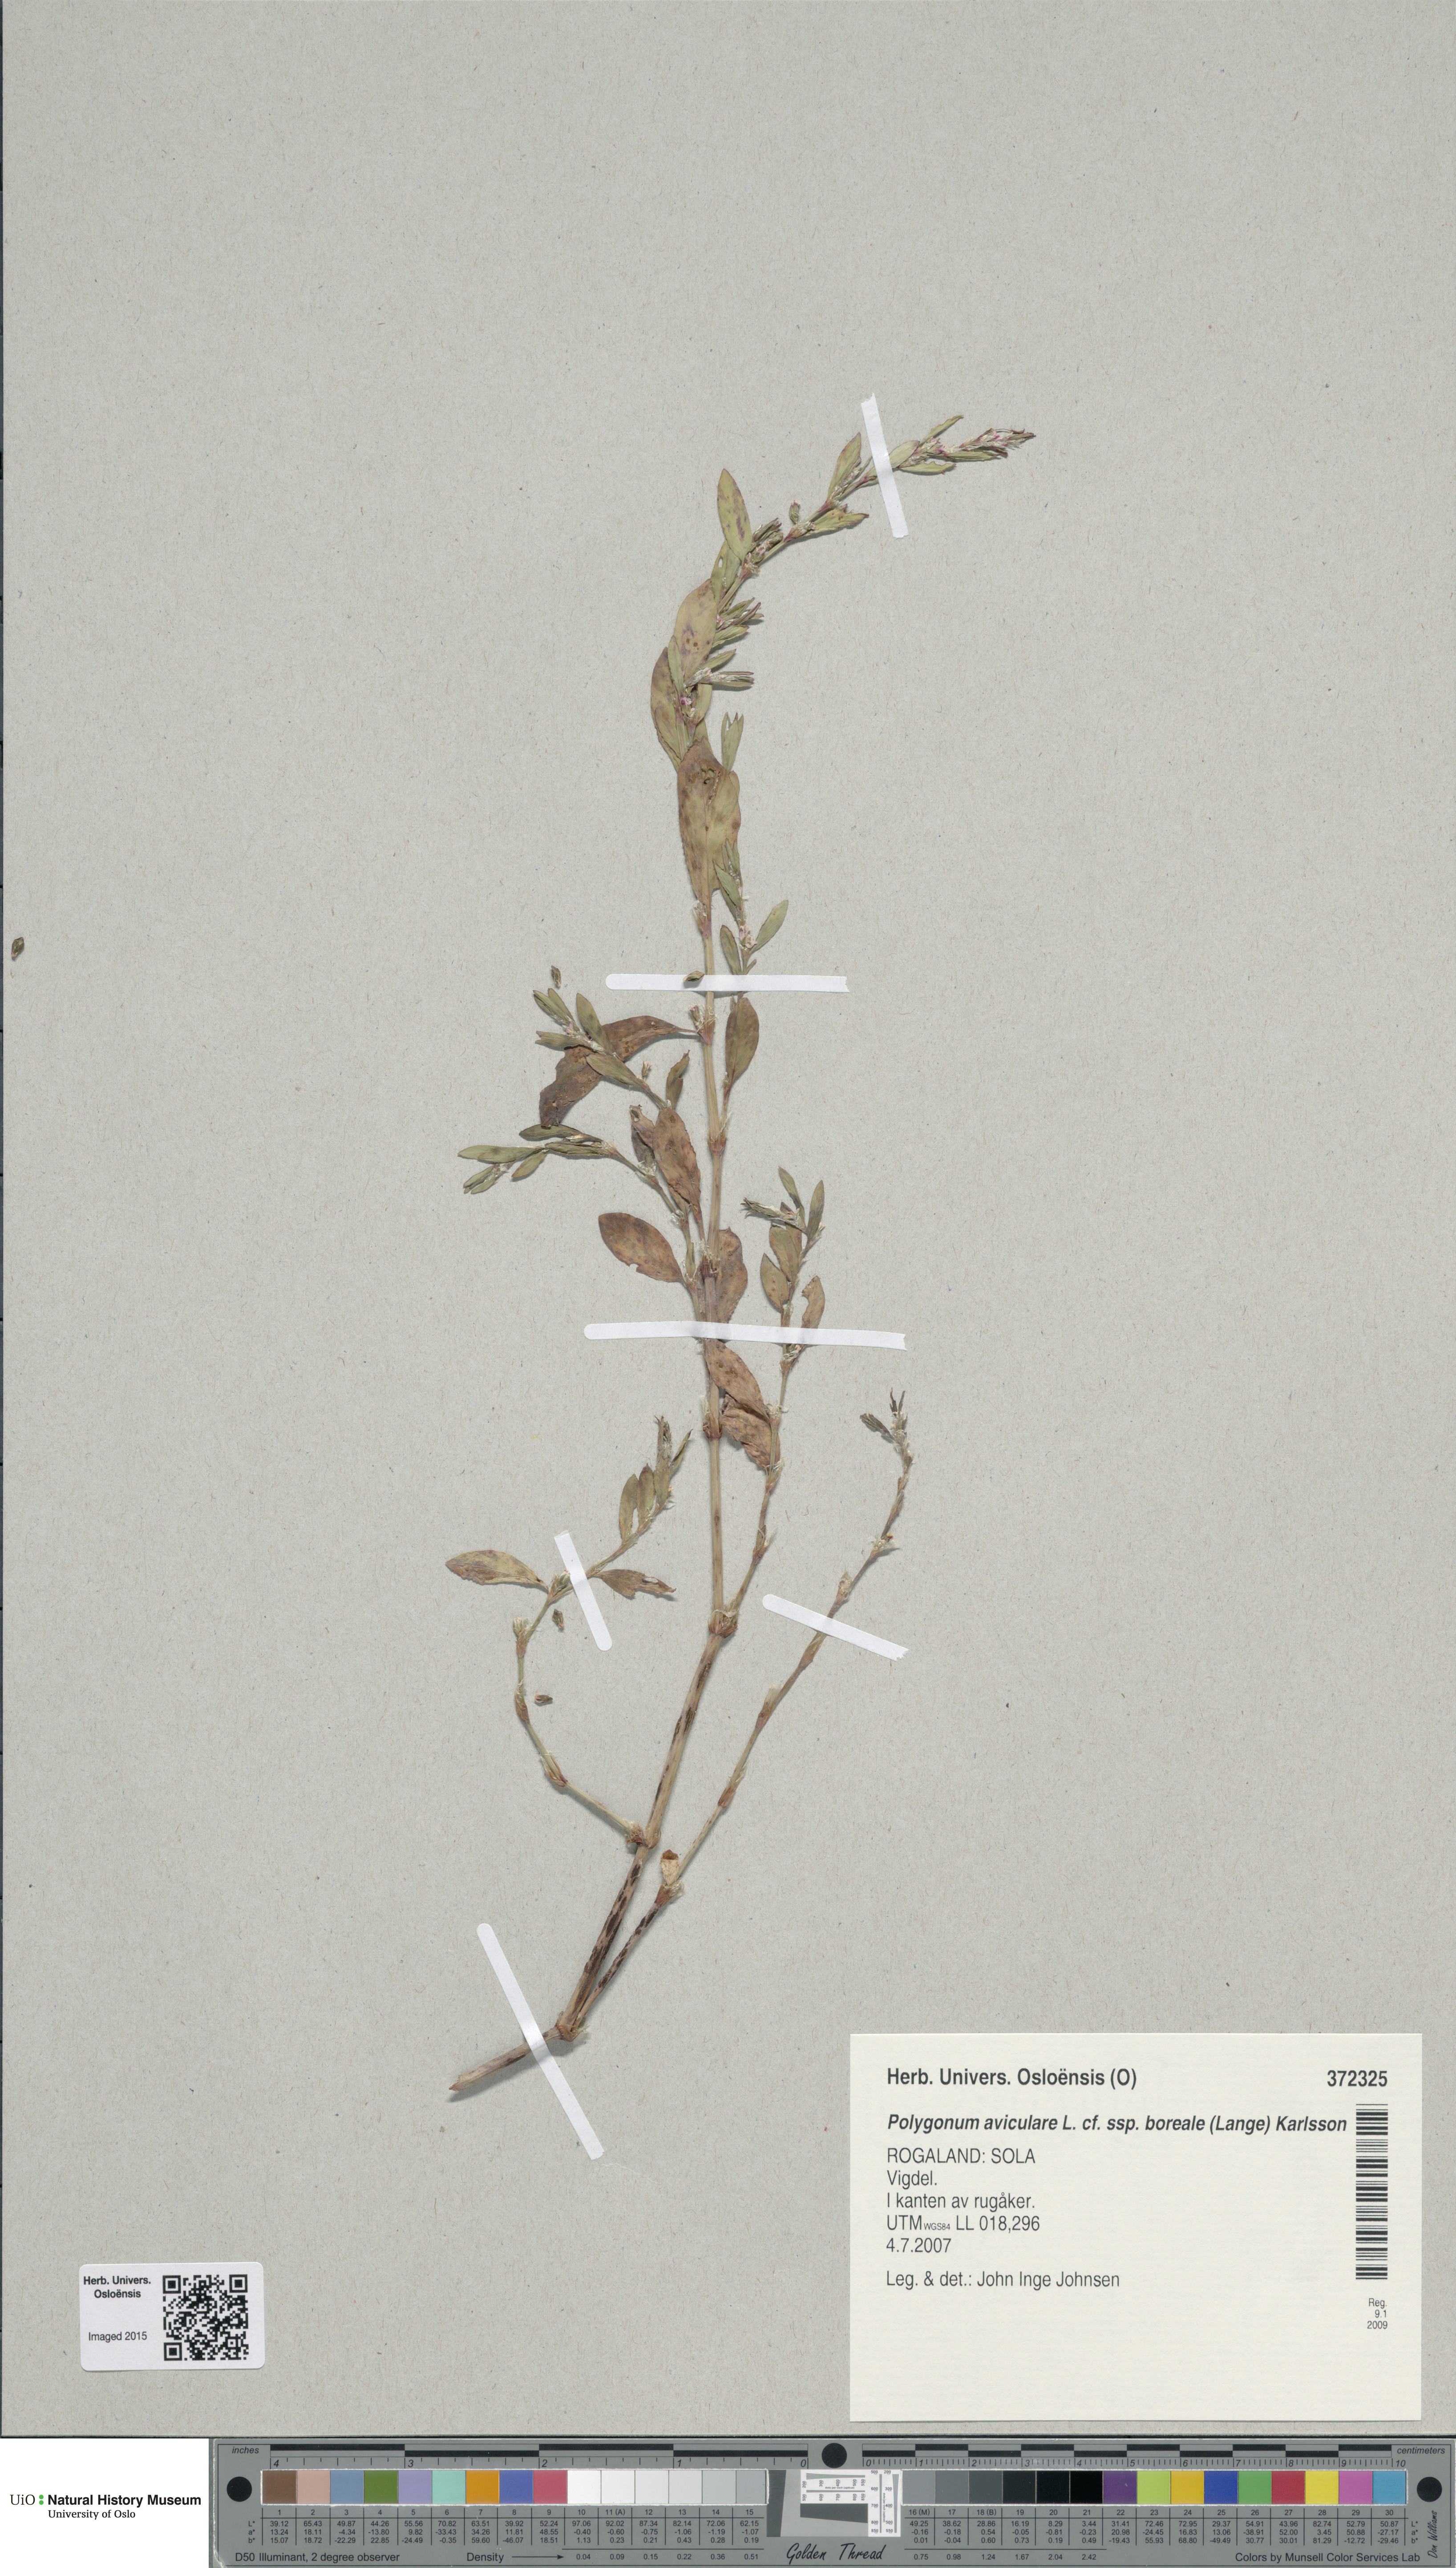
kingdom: Plantae
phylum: Tracheophyta
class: Magnoliopsida
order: Caryophyllales
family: Polygonaceae
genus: Polygonum
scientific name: Polygonum boreale
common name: Northern knotgrass
